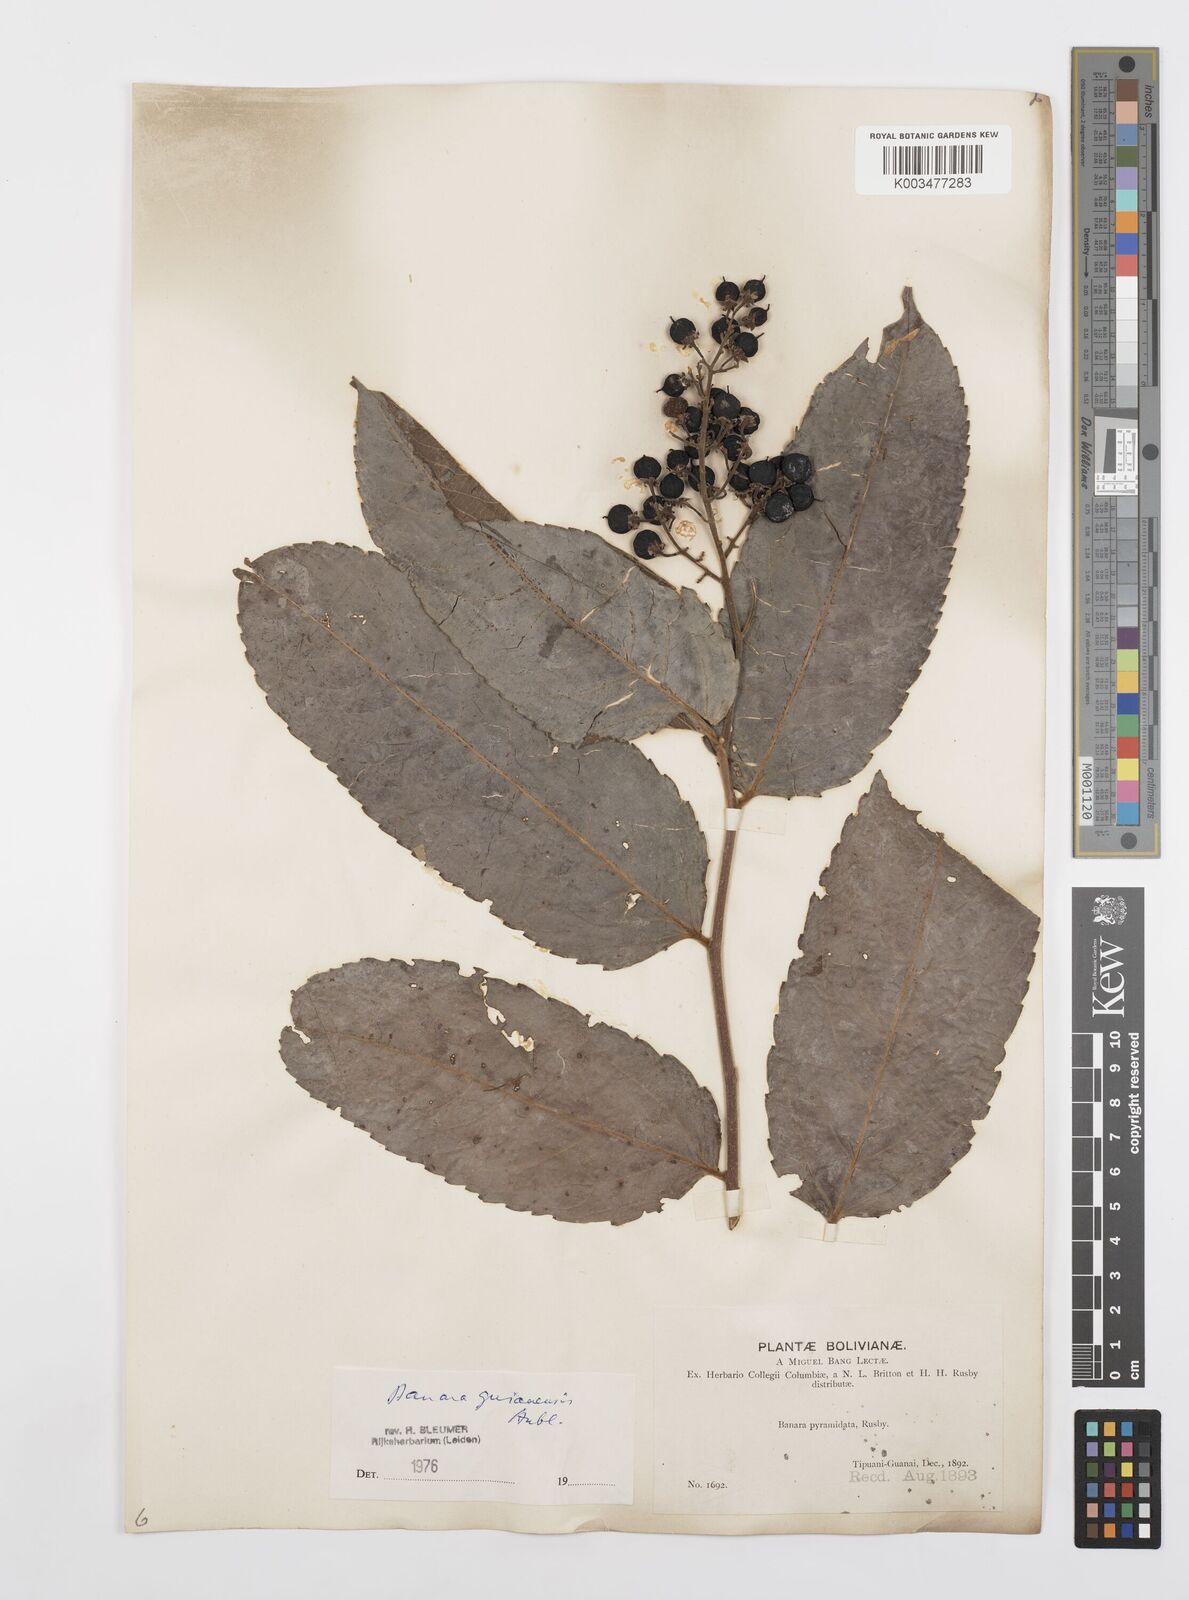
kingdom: Plantae
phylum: Tracheophyta
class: Magnoliopsida
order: Malpighiales
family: Salicaceae
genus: Banara
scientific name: Banara guianensis
